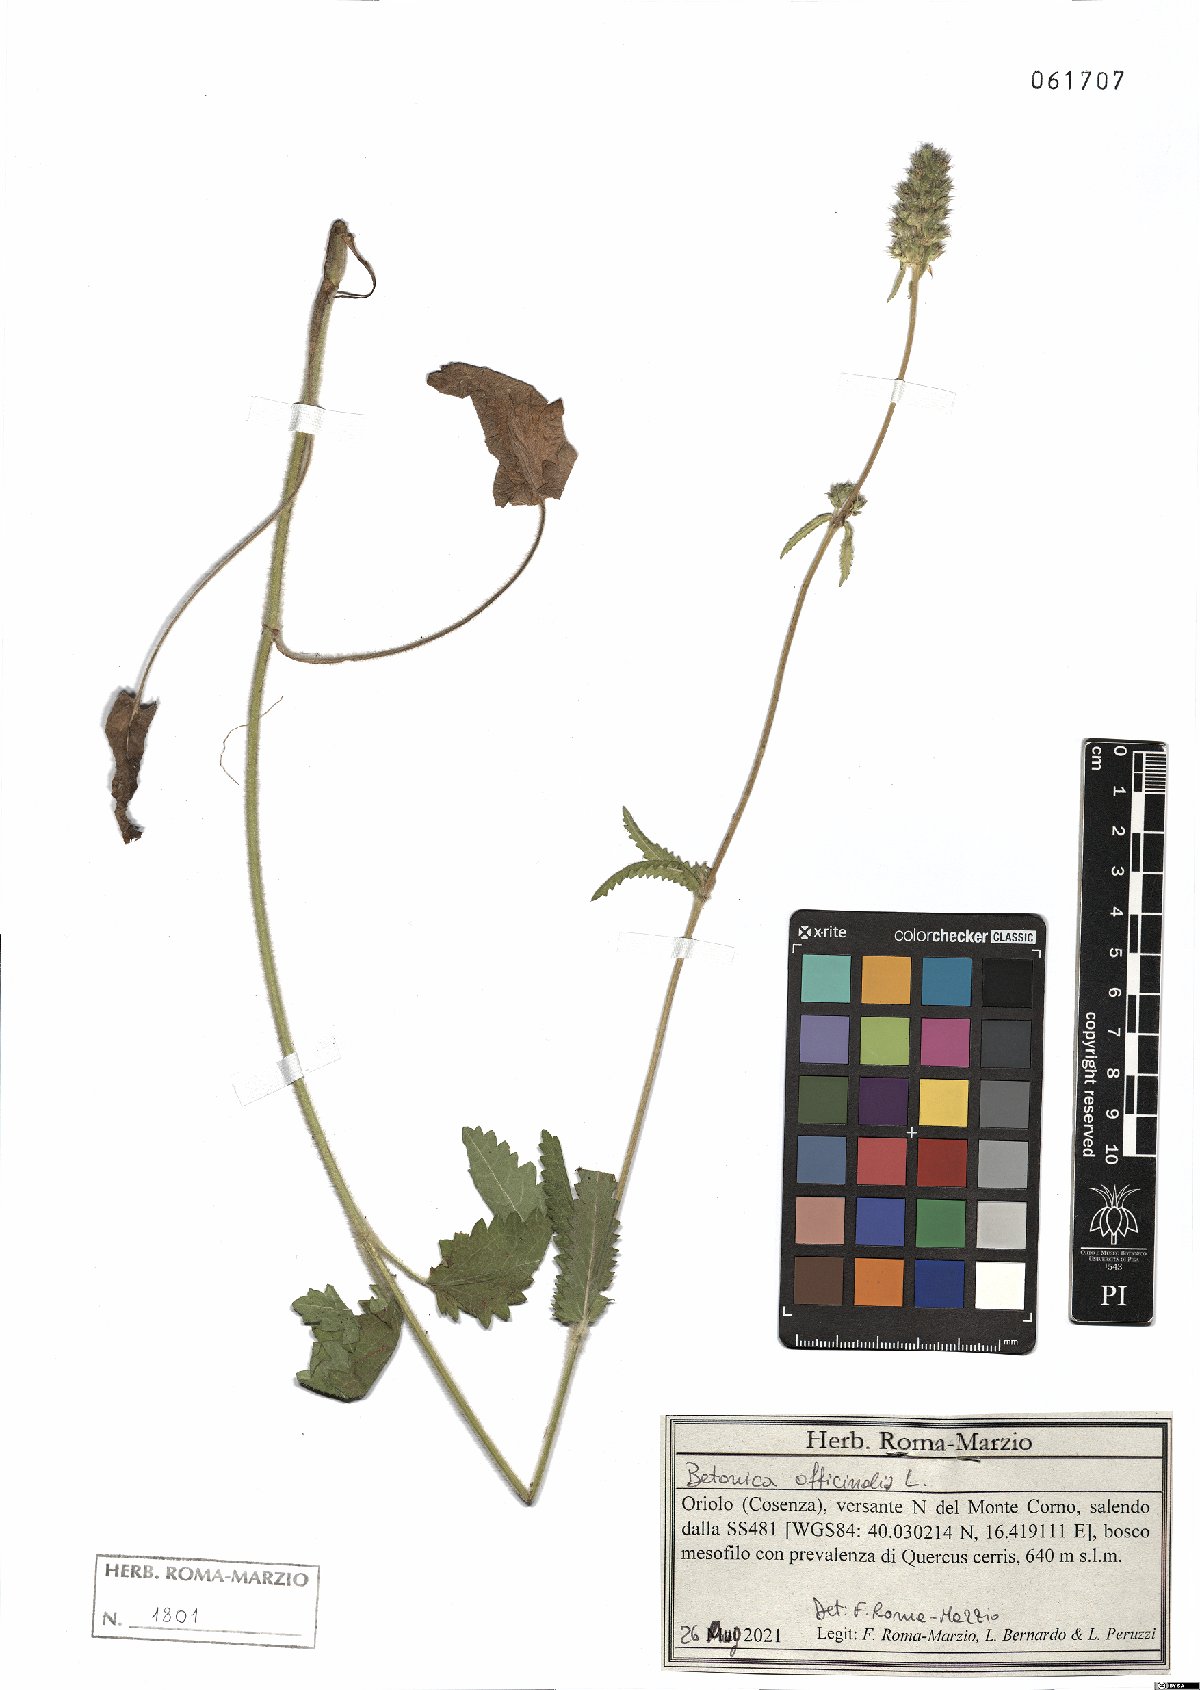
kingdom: Plantae
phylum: Tracheophyta
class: Magnoliopsida
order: Lamiales
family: Lamiaceae
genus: Betonica
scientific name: Betonica officinalis
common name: Bishop's-wort
